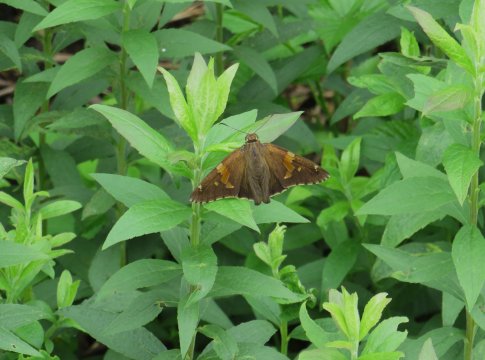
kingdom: Animalia
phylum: Arthropoda
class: Insecta
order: Lepidoptera
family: Hesperiidae
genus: Epargyreus
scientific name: Epargyreus clarus
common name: Silver-spotted Skipper
